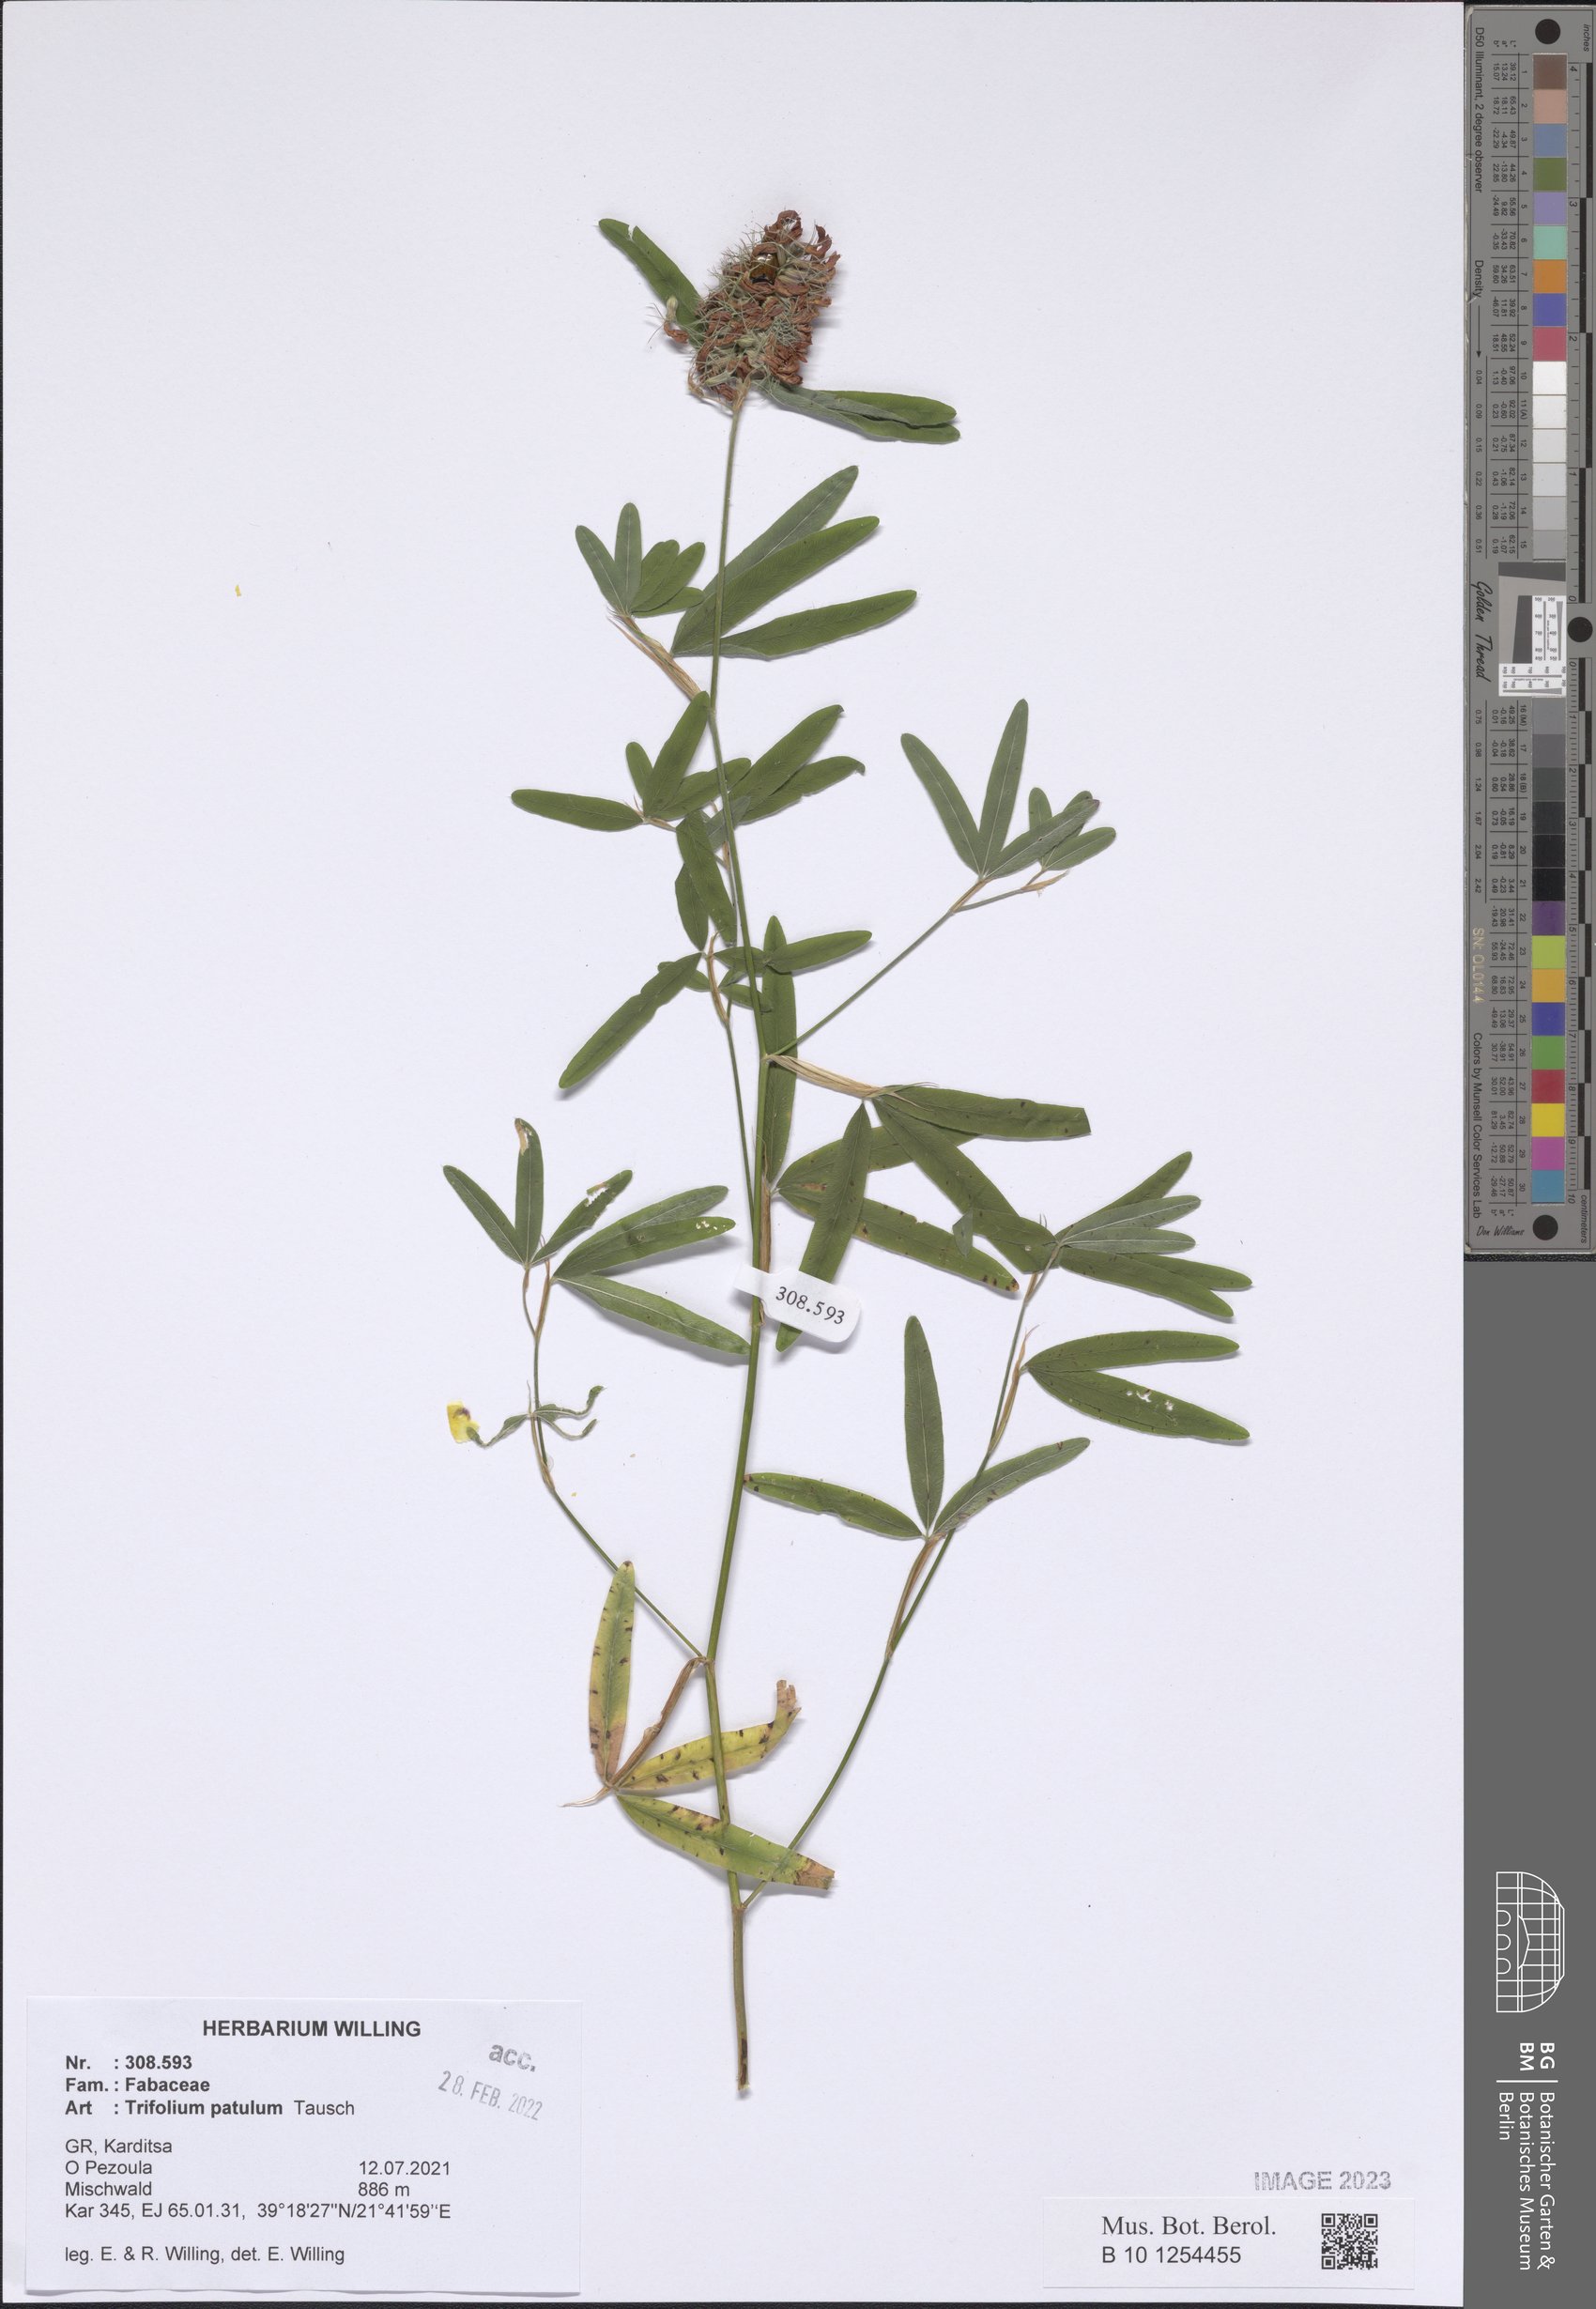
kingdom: Plantae
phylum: Tracheophyta
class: Magnoliopsida
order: Fabales
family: Fabaceae
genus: Trifolium
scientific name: Trifolium patulum
